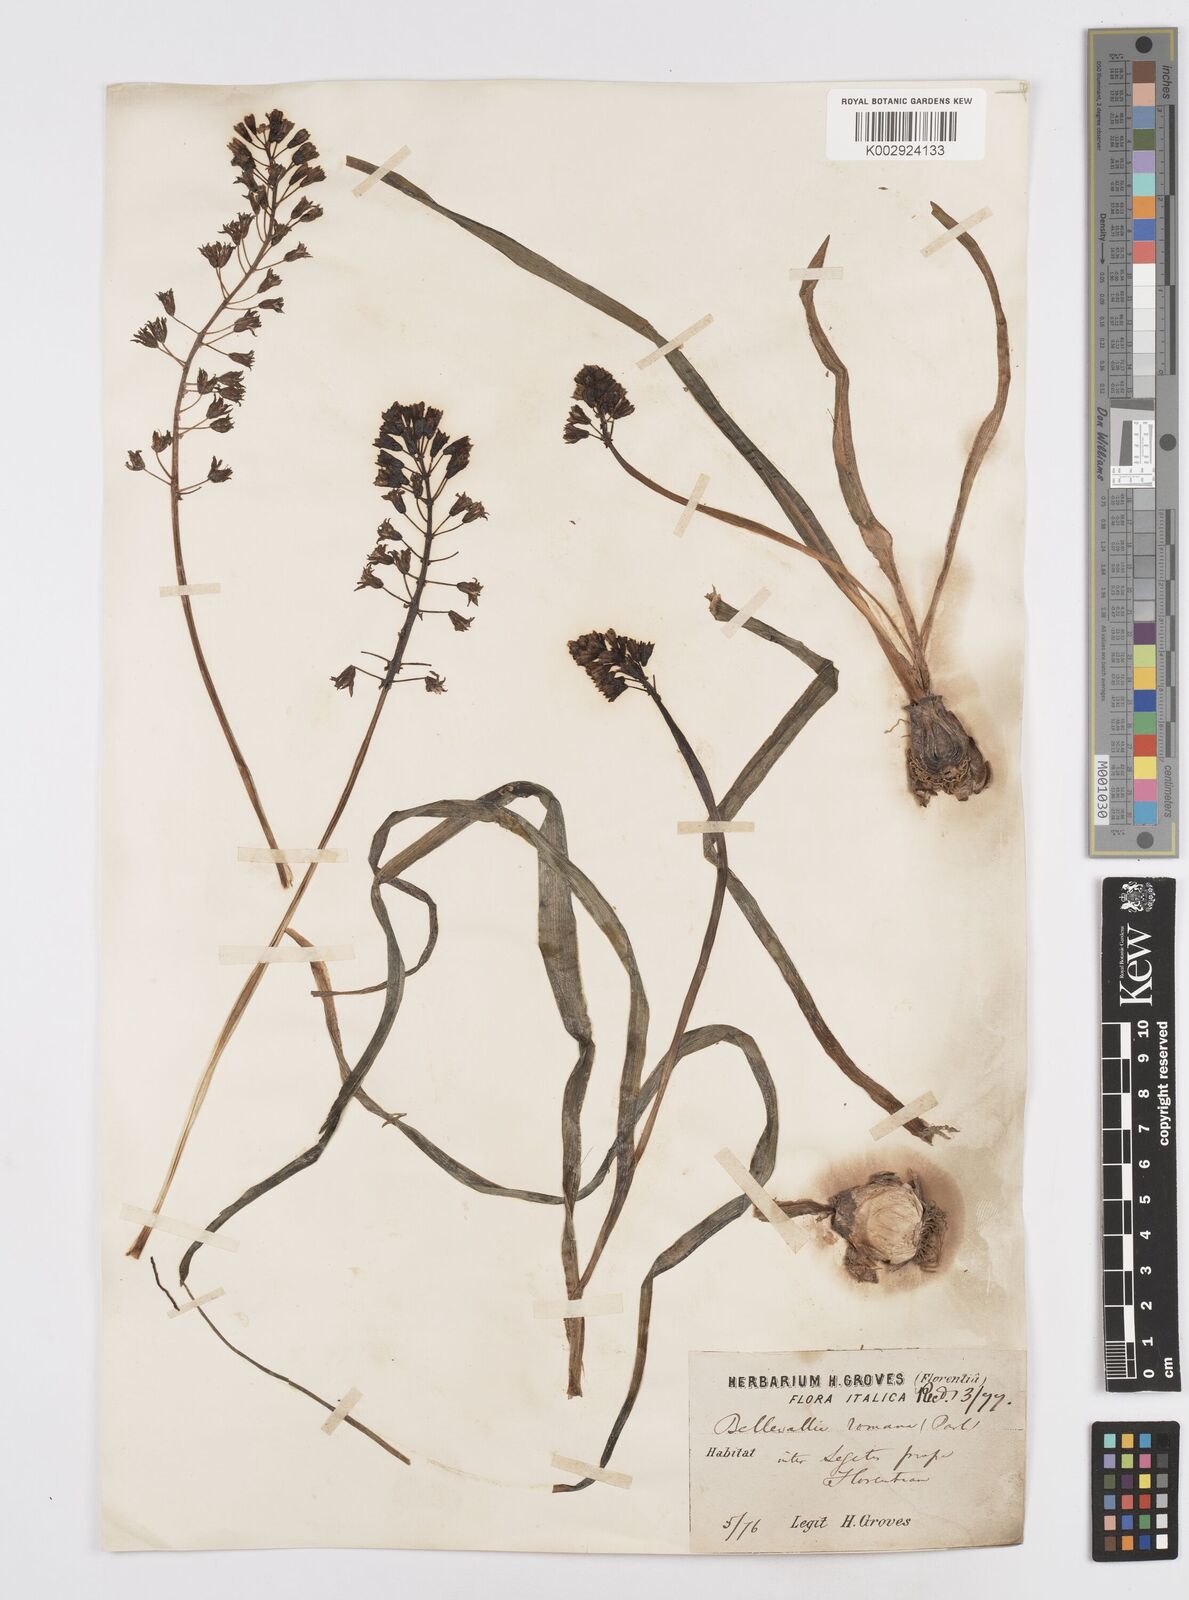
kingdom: Plantae
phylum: Tracheophyta
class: Liliopsida
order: Asparagales
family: Asparagaceae
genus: Bellevalia
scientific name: Bellevalia
